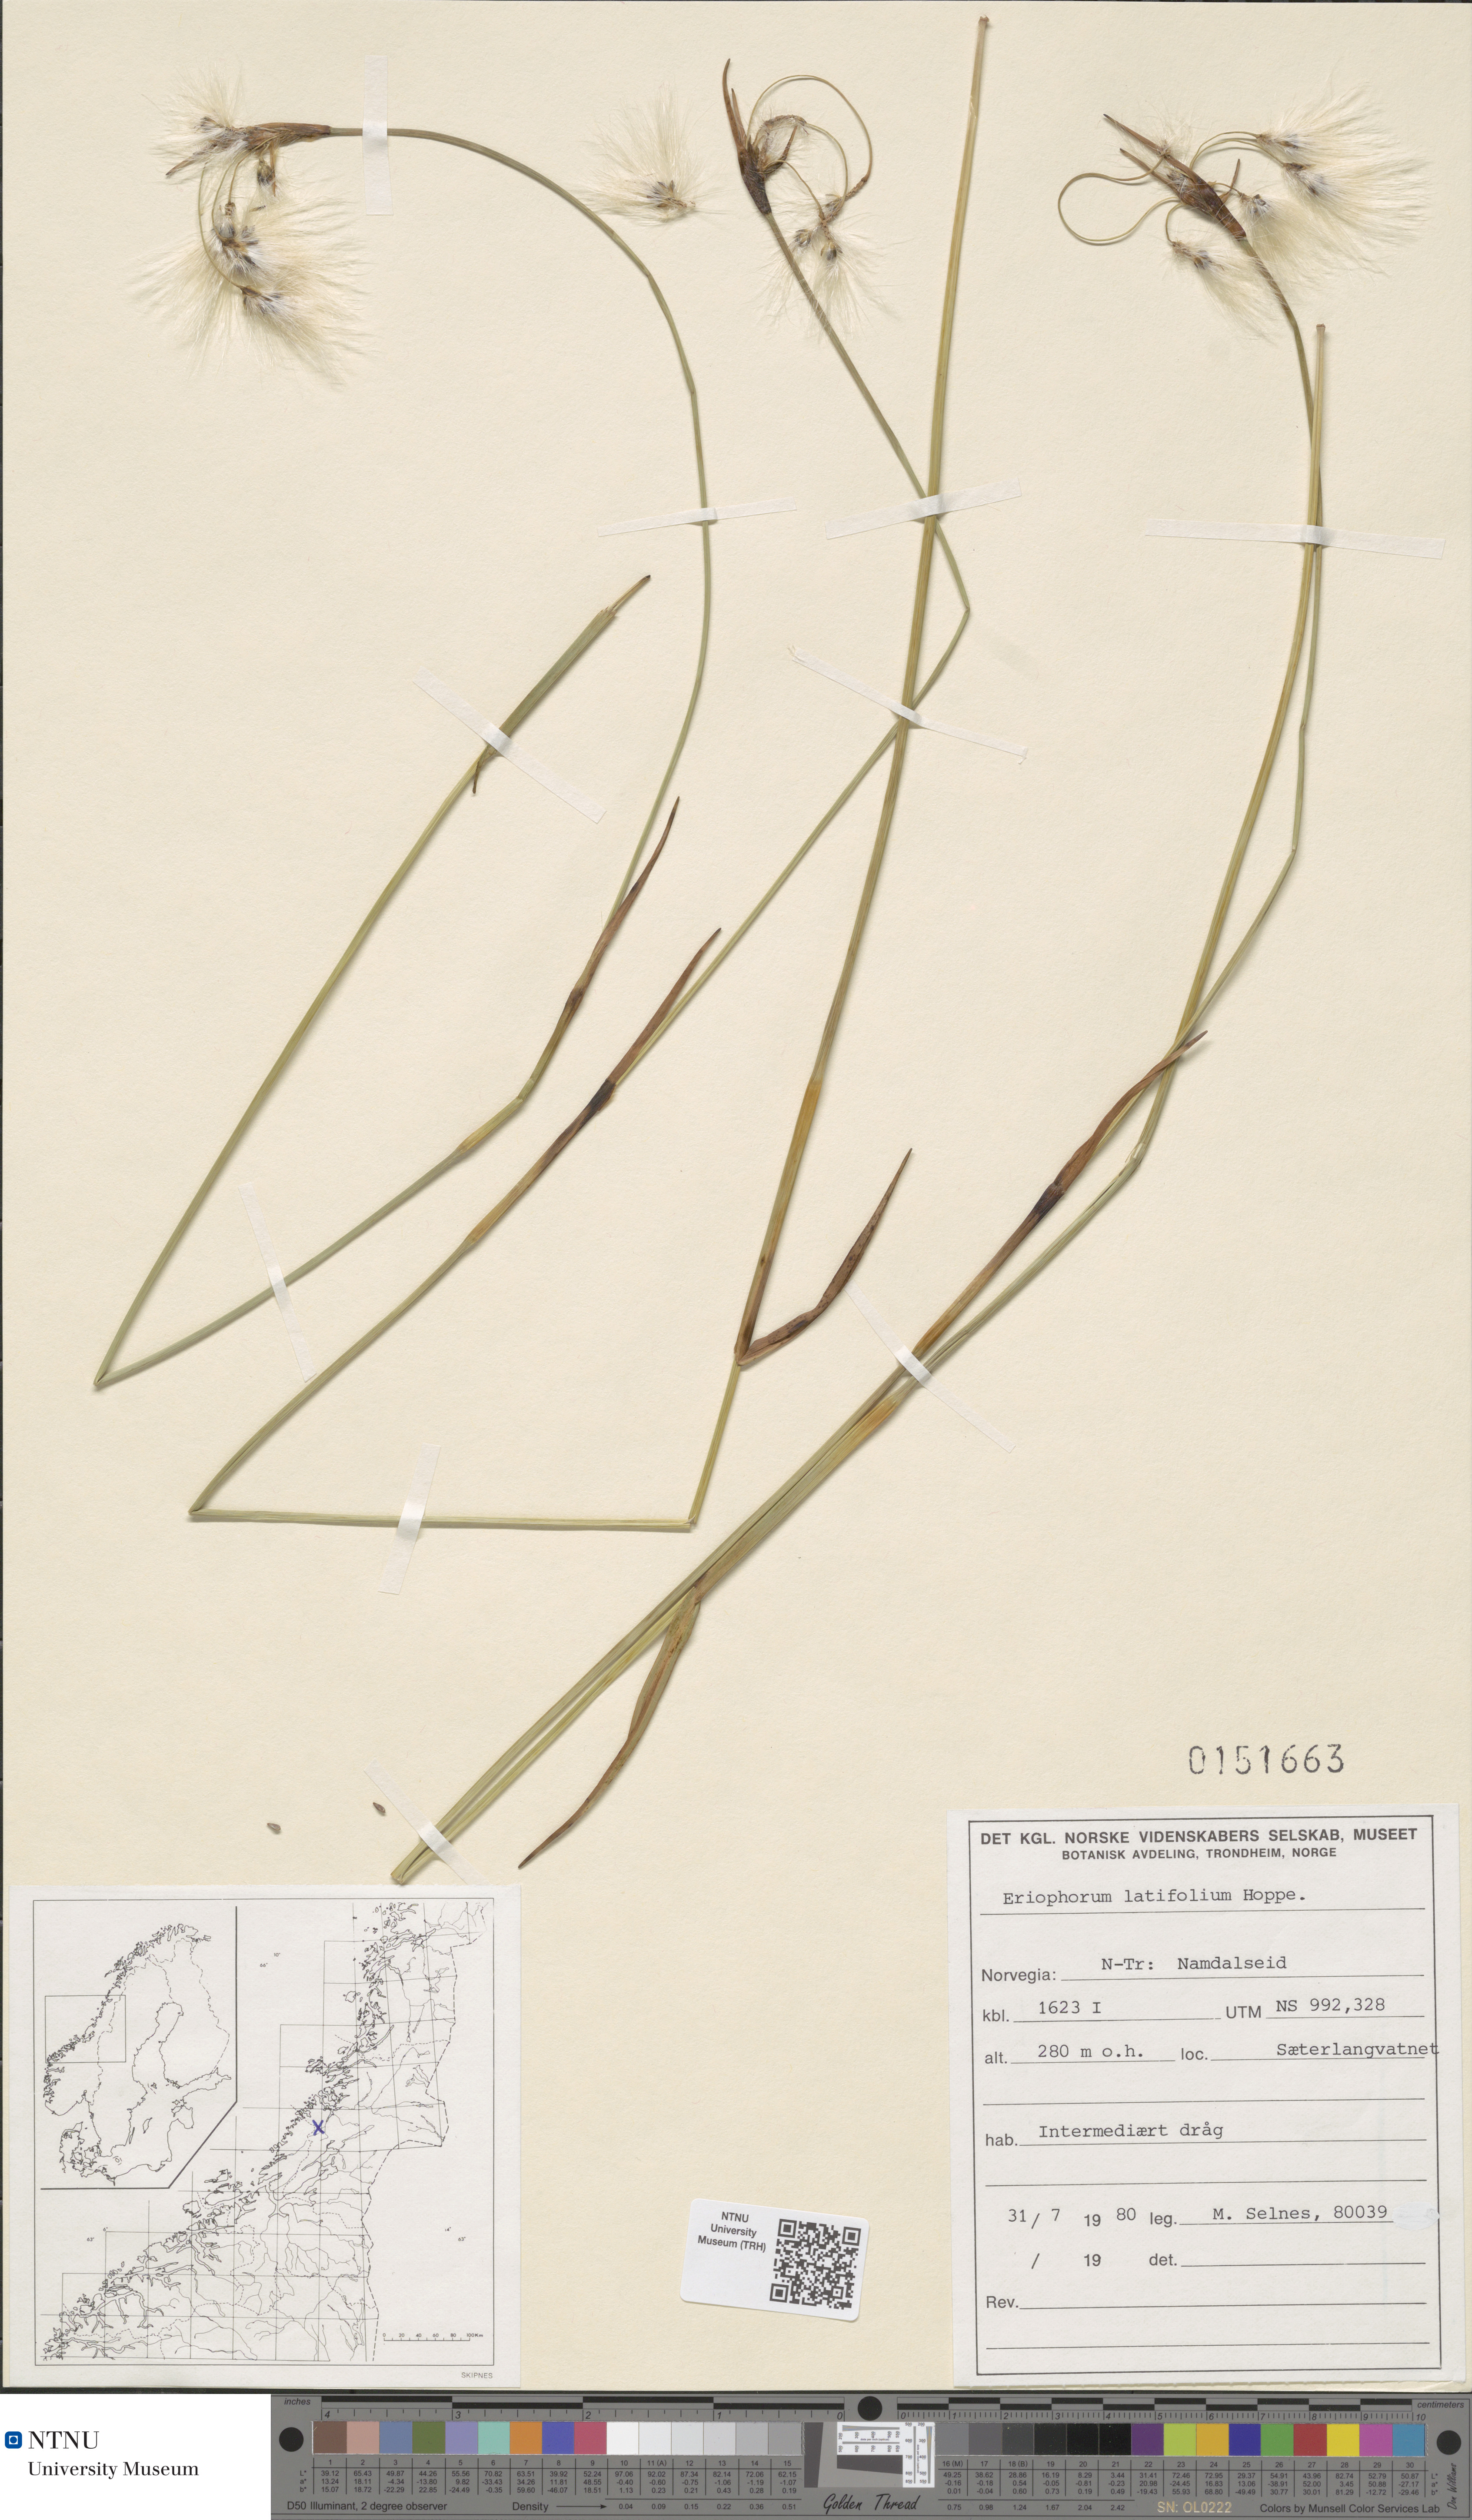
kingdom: Plantae
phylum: Tracheophyta
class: Liliopsida
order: Poales
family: Cyperaceae
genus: Eriophorum
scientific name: Eriophorum latifolium
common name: Broad-leaved cottongrass
